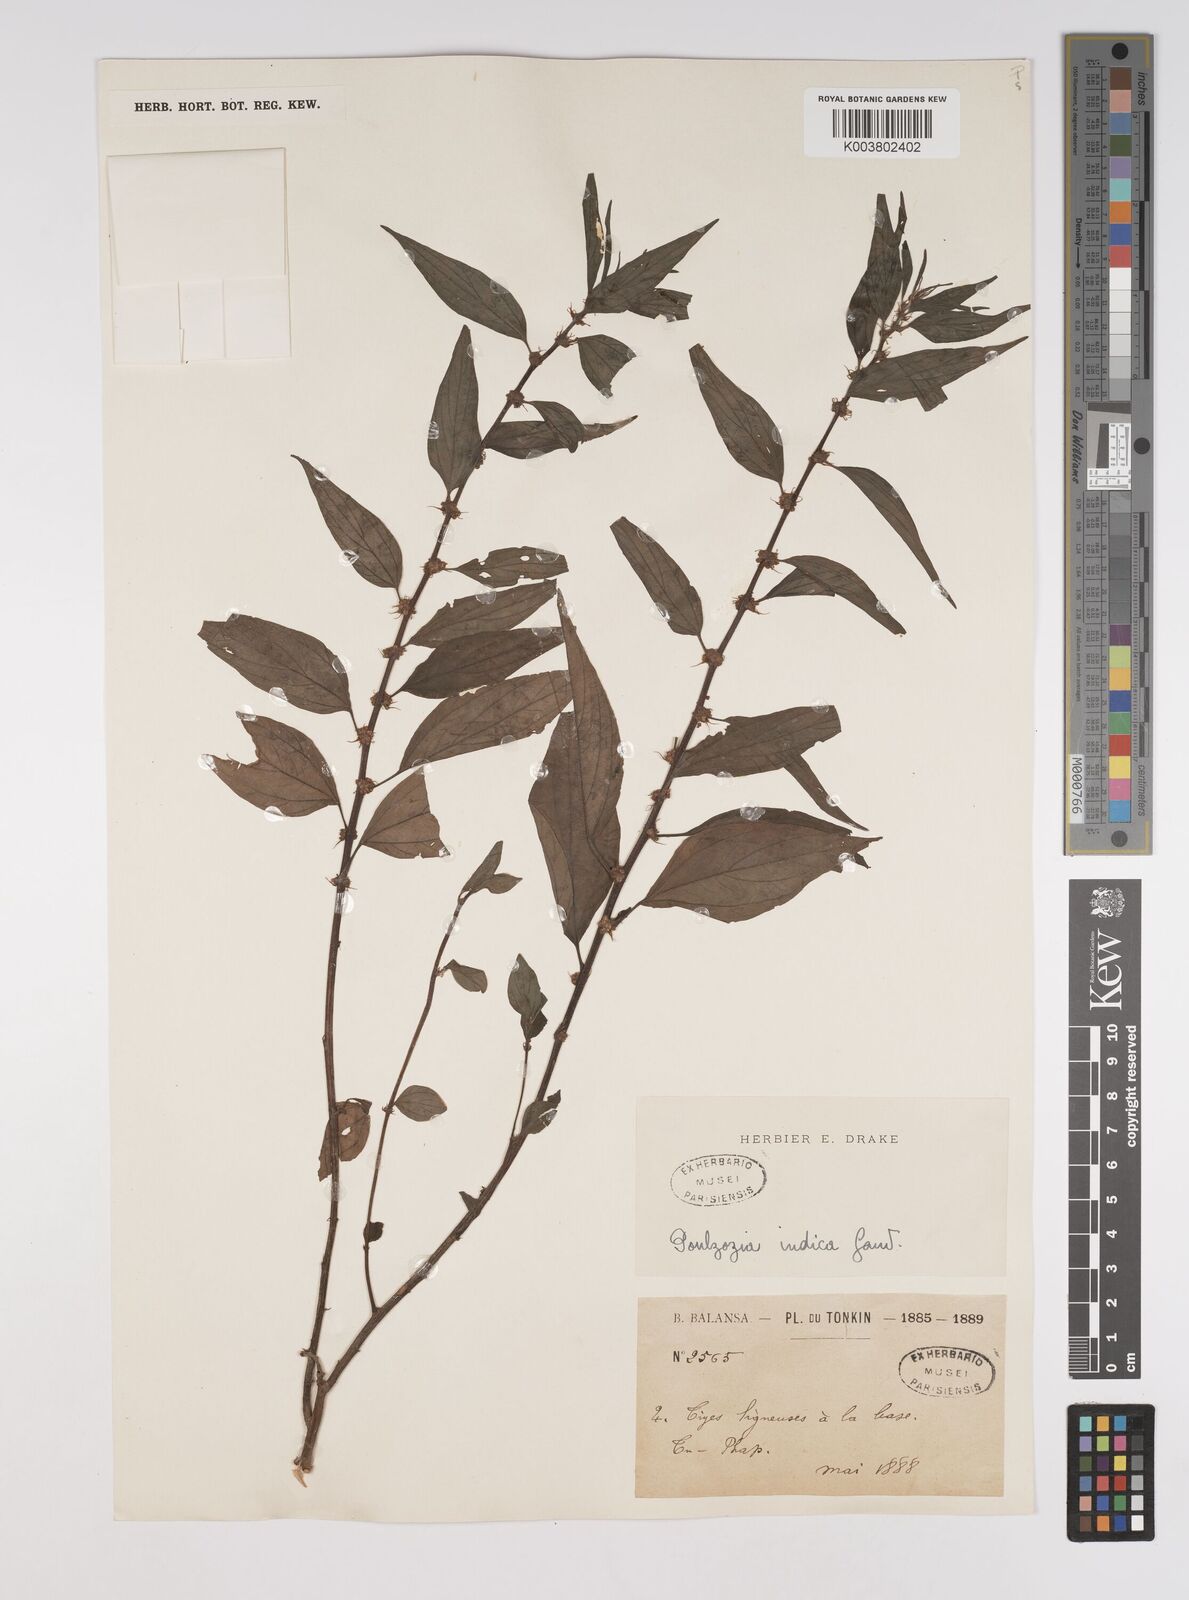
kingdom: Plantae
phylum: Tracheophyta
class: Magnoliopsida
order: Rosales
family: Urticaceae
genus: Pouzolzia
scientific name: Pouzolzia zeylanica
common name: Graceful pouzolzsbush
